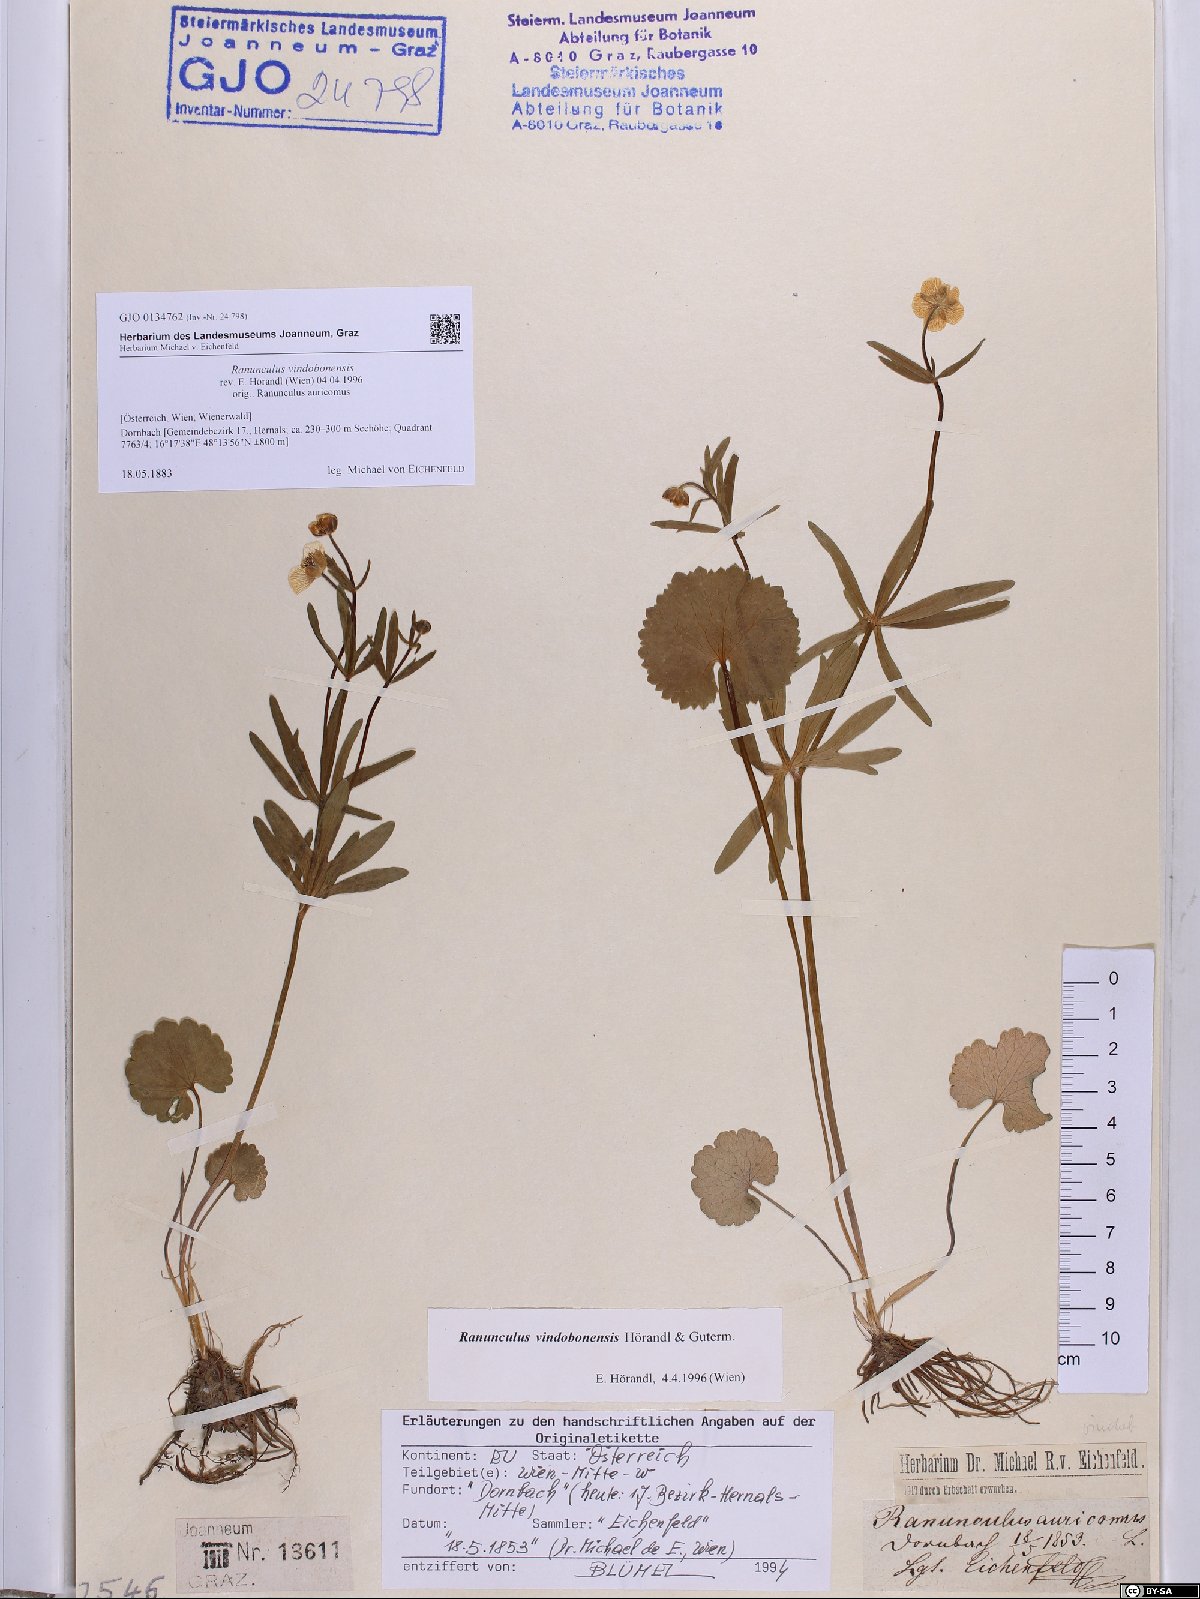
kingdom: Plantae
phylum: Tracheophyta
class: Magnoliopsida
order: Ranunculales
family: Ranunculaceae
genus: Ranunculus
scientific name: Ranunculus vindobonensis
